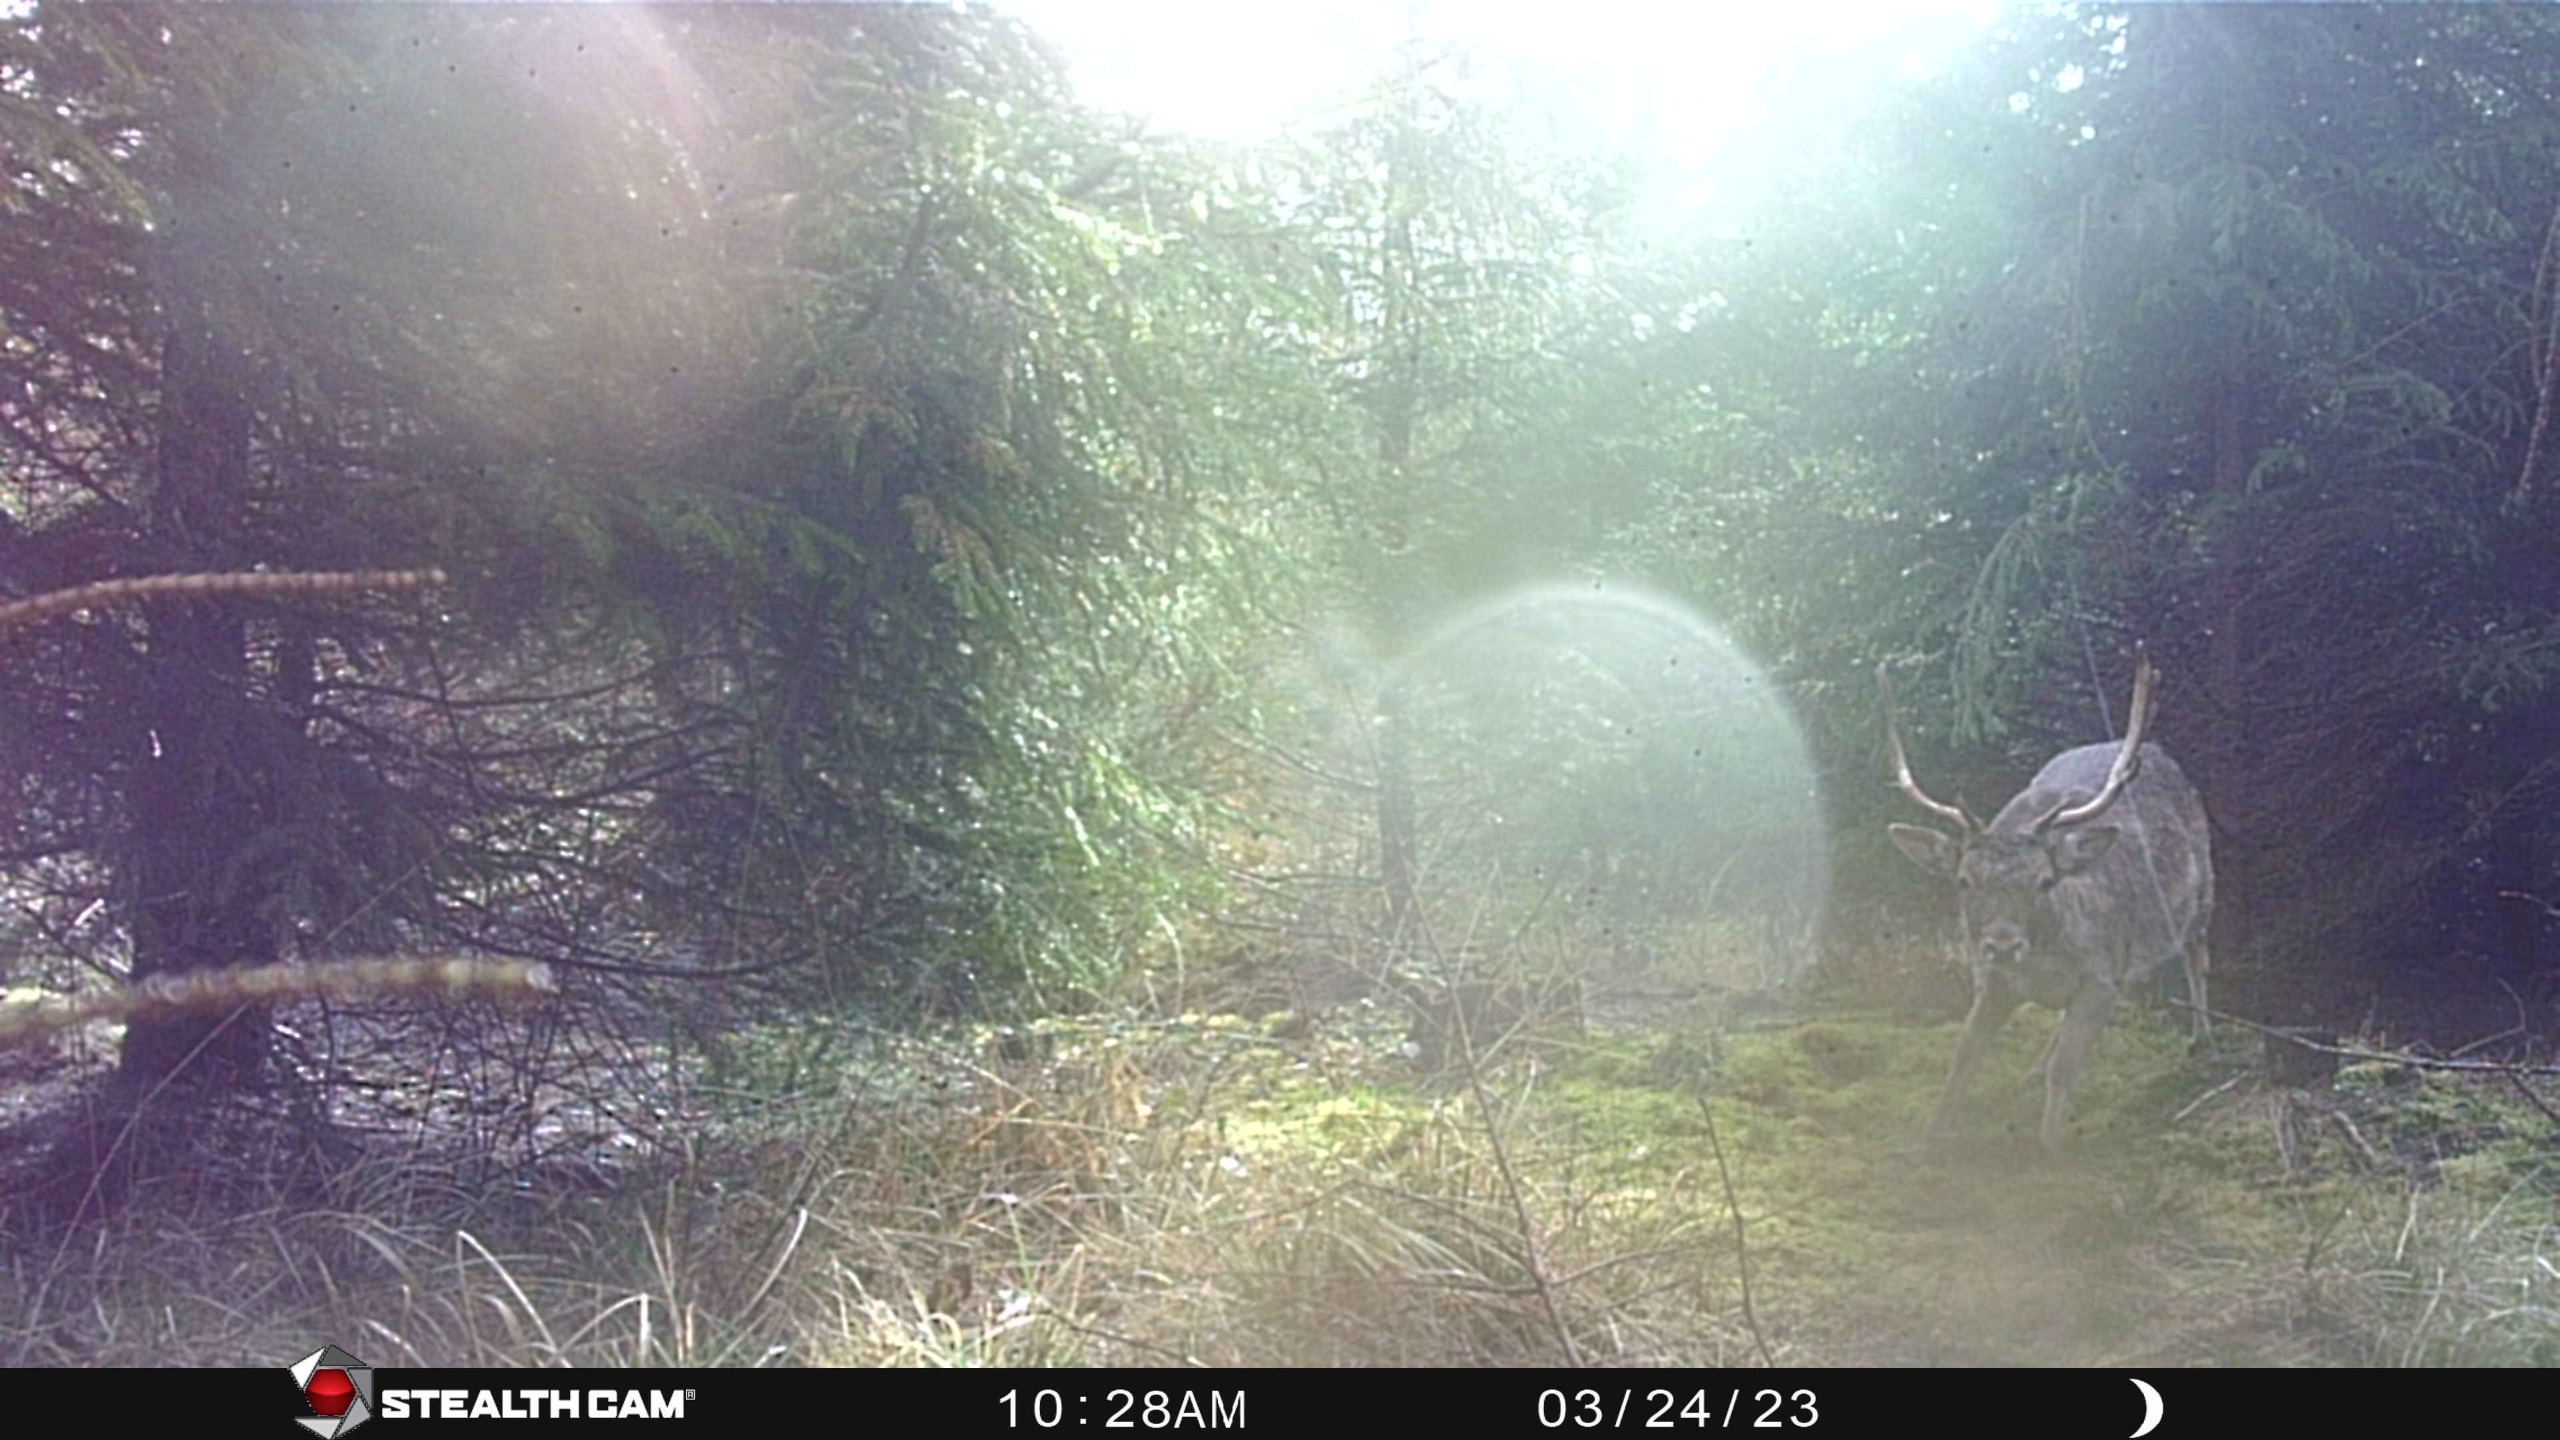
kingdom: Animalia
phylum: Chordata
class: Mammalia
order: Artiodactyla
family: Cervidae
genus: Dama
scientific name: Dama dama
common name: Dådyr
